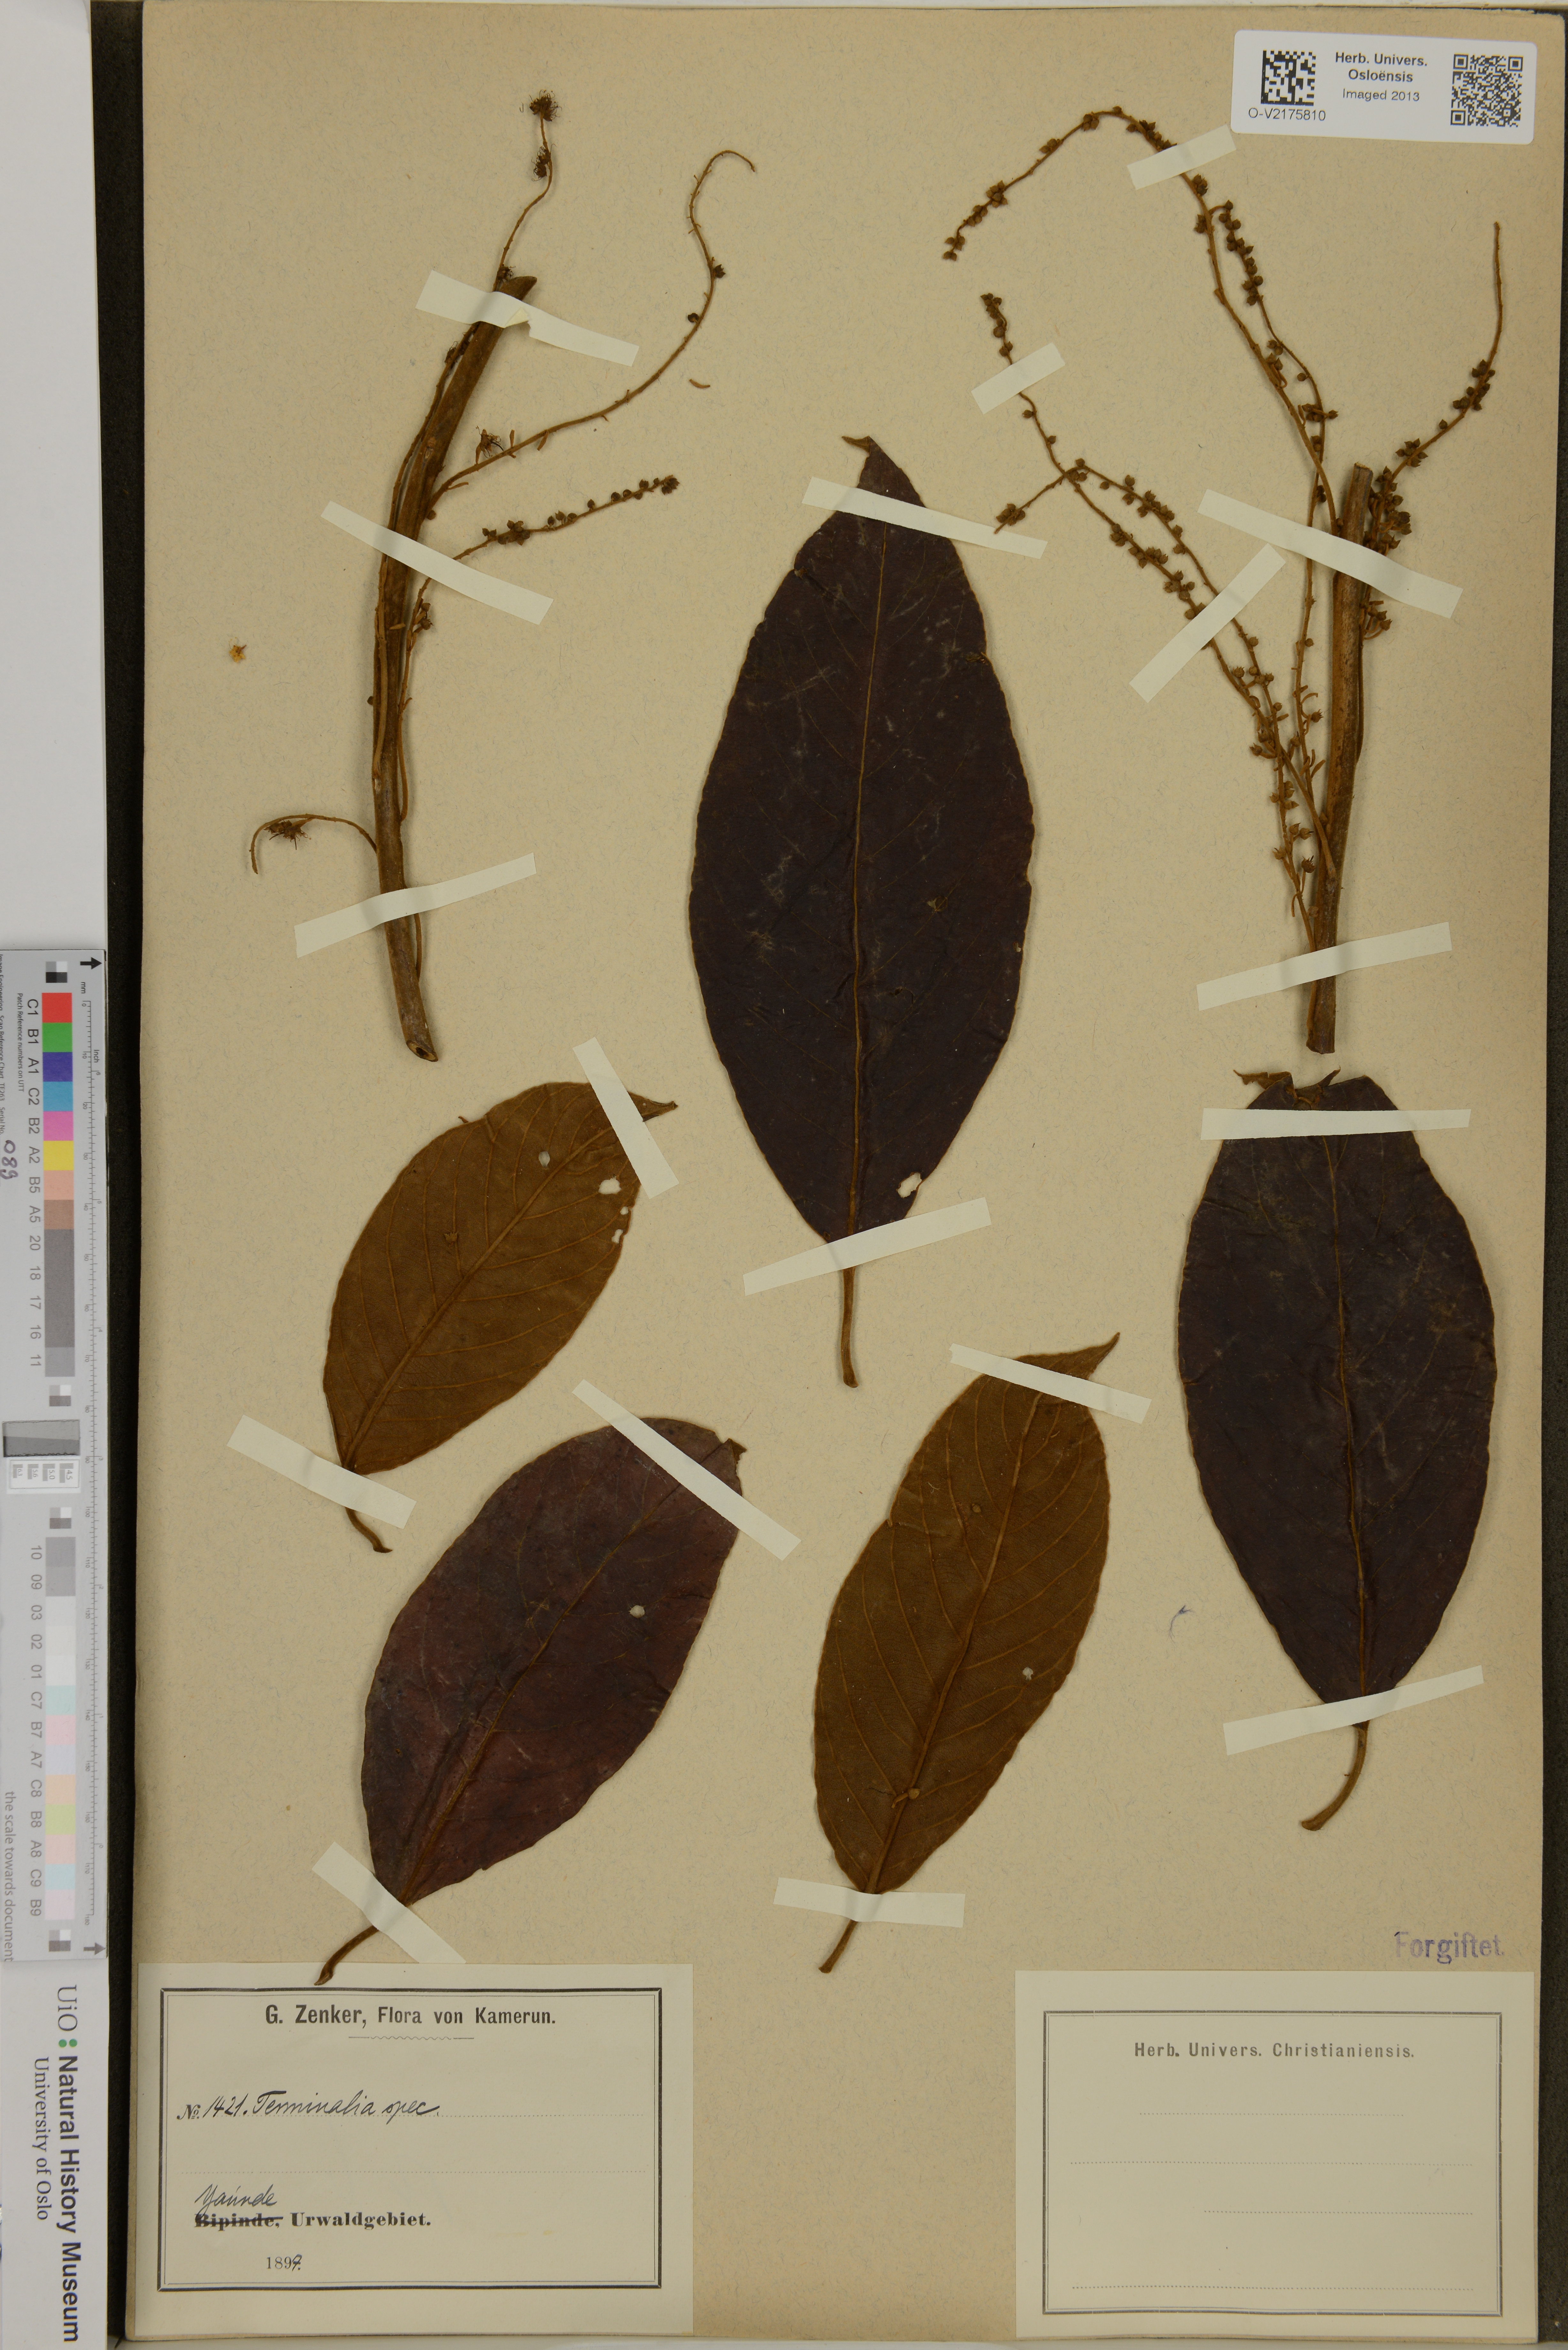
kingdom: Plantae
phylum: Tracheophyta
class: Magnoliopsida
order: Myrtales
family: Combretaceae
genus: Terminalia
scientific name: Terminalia
